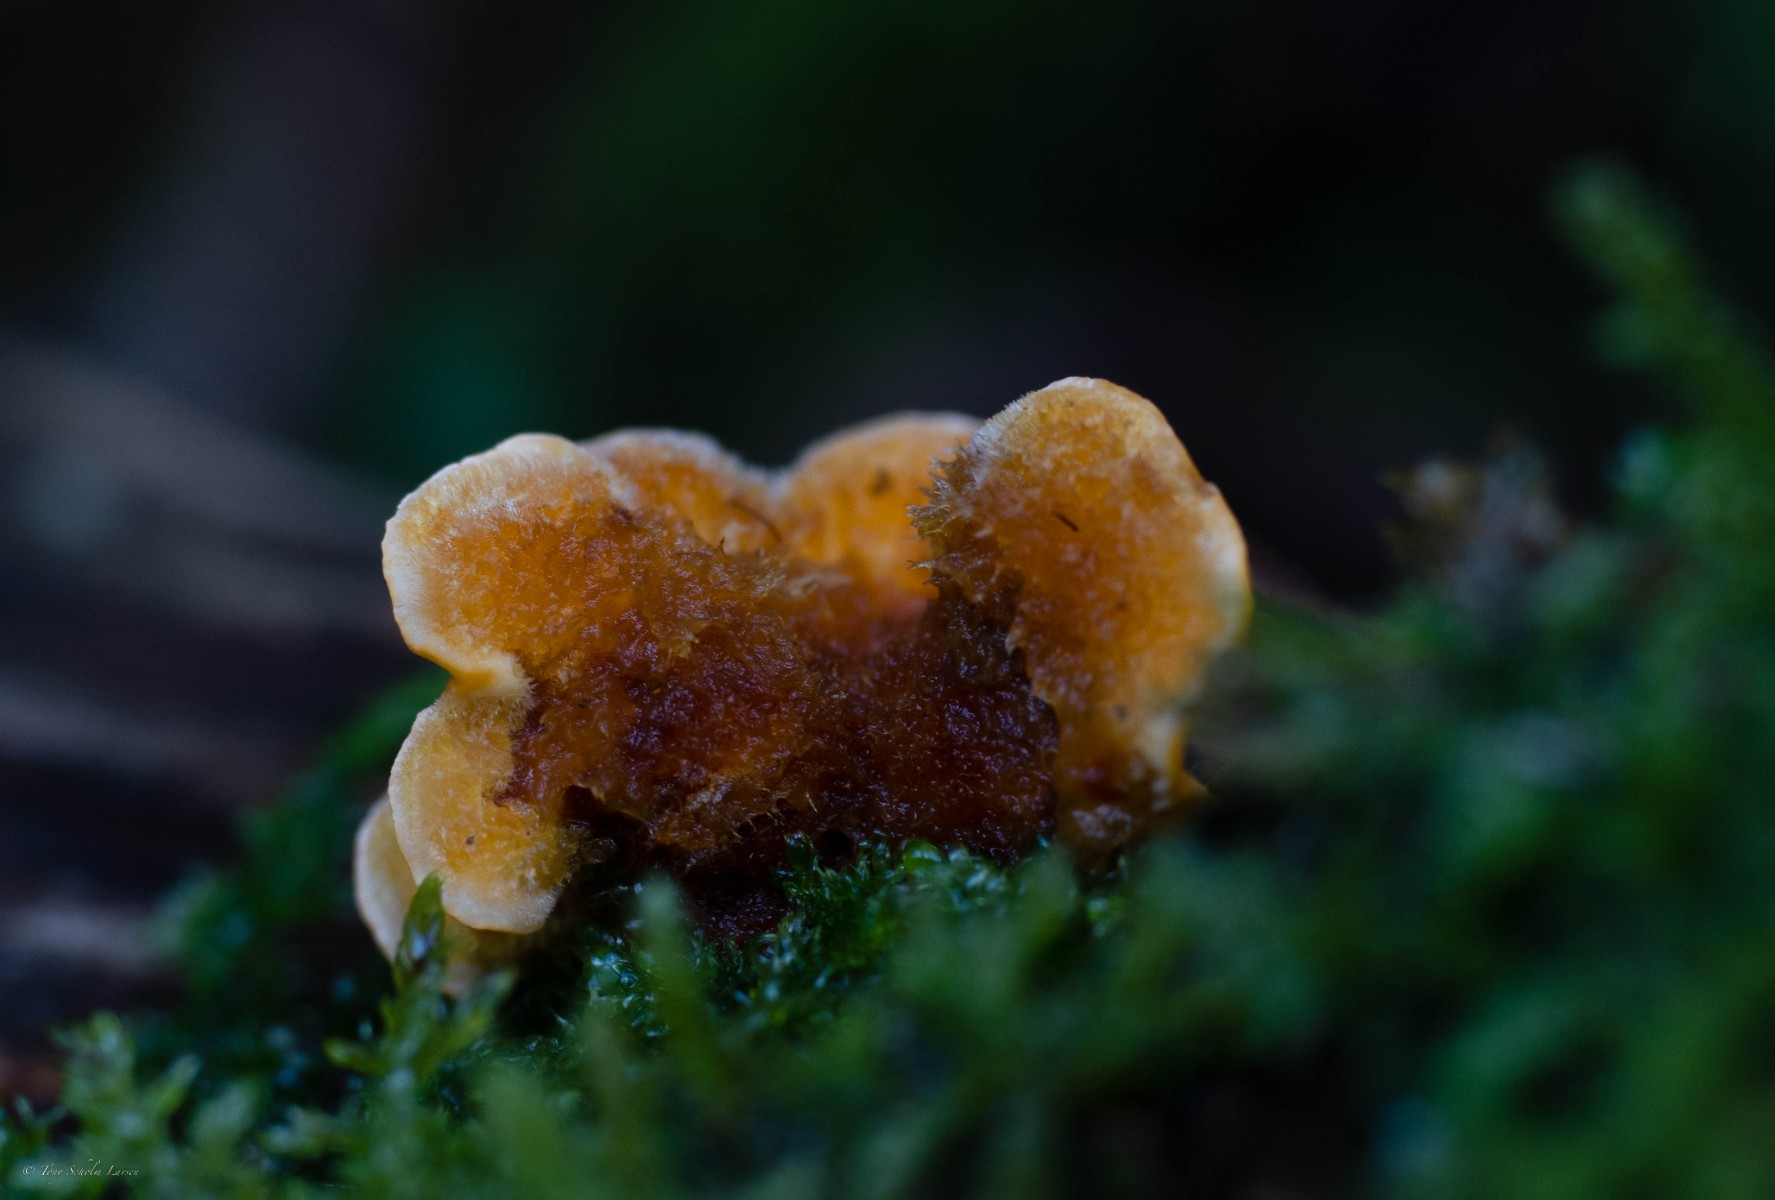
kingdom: Fungi
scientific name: Fungi
